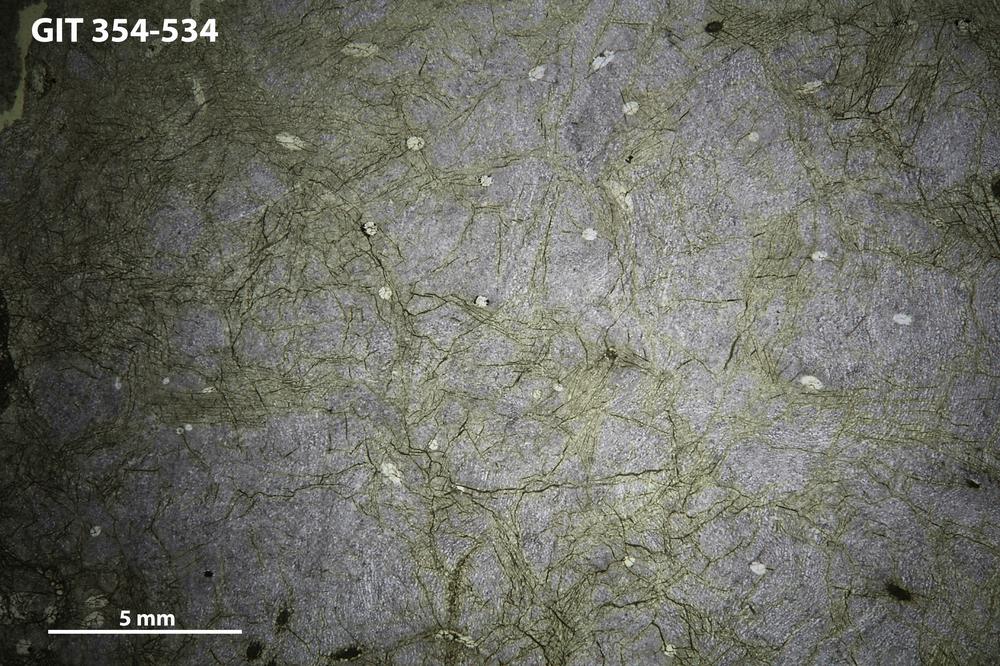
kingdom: Animalia
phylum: Porifera
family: Clathrodictyidae
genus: Clathrodictyon
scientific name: Clathrodictyon delicatulum
